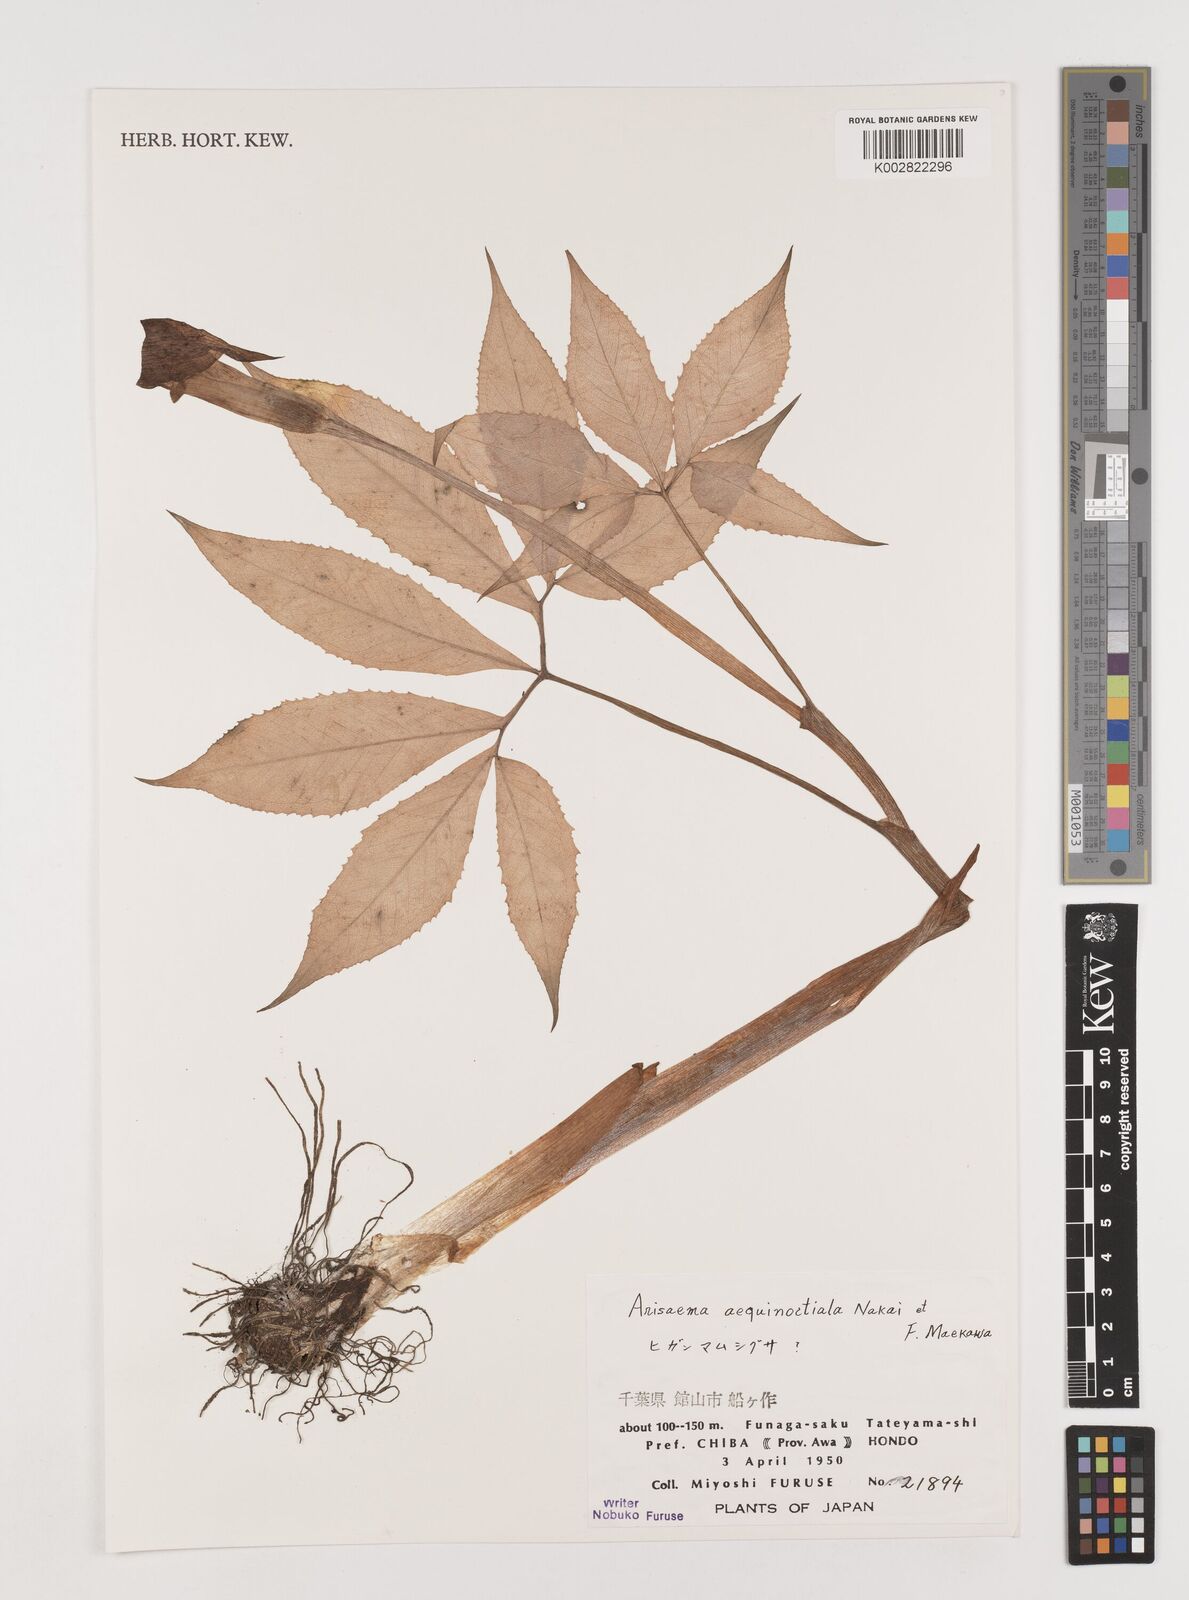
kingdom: Plantae
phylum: Tracheophyta
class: Liliopsida
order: Alismatales
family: Araceae
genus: Arisaema
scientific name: Arisaema aequinoctiale
